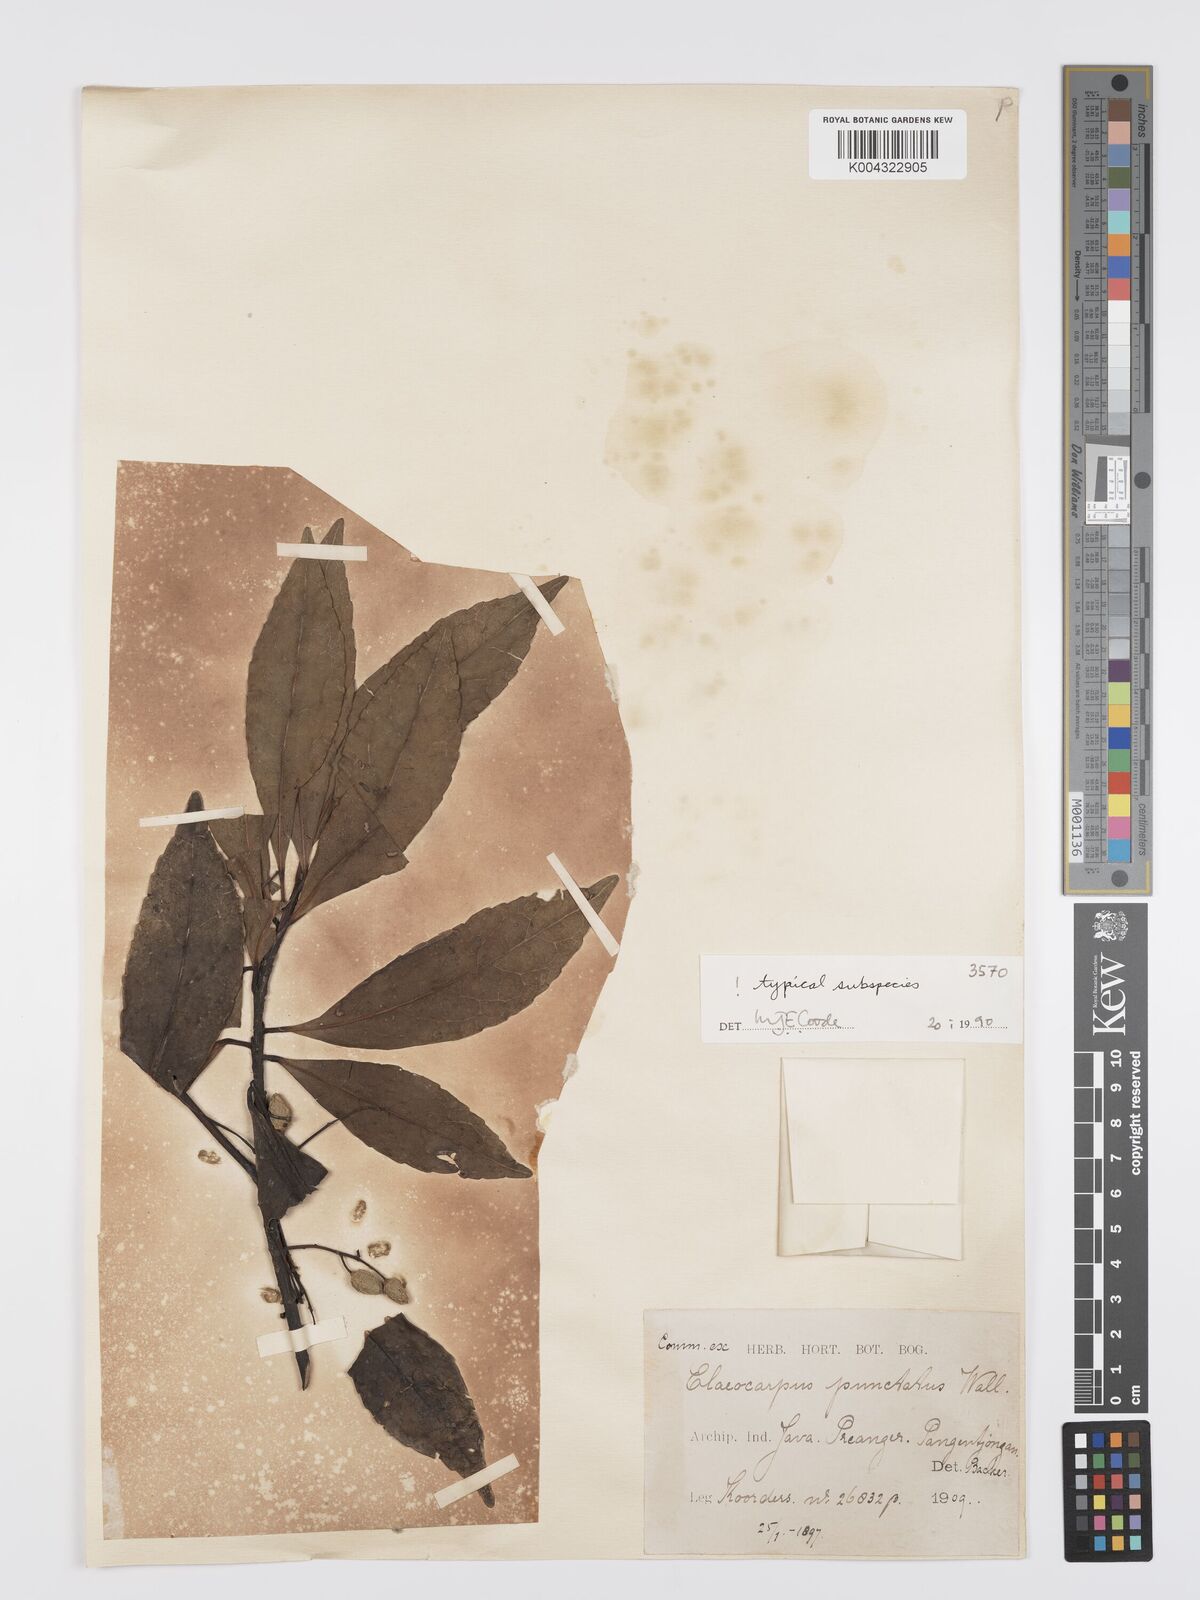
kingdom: Plantae
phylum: Tracheophyta
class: Magnoliopsida
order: Oxalidales
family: Elaeocarpaceae
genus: Elaeocarpus
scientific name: Elaeocarpus acronodia
